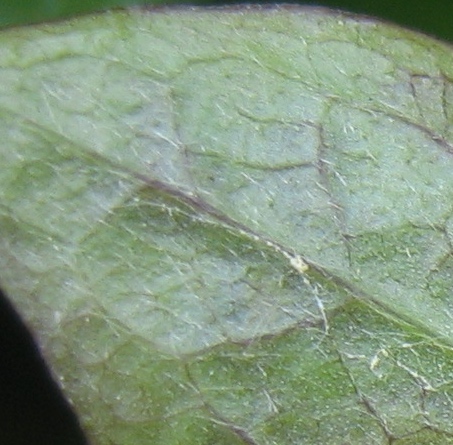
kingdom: Fungi
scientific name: Fungi
